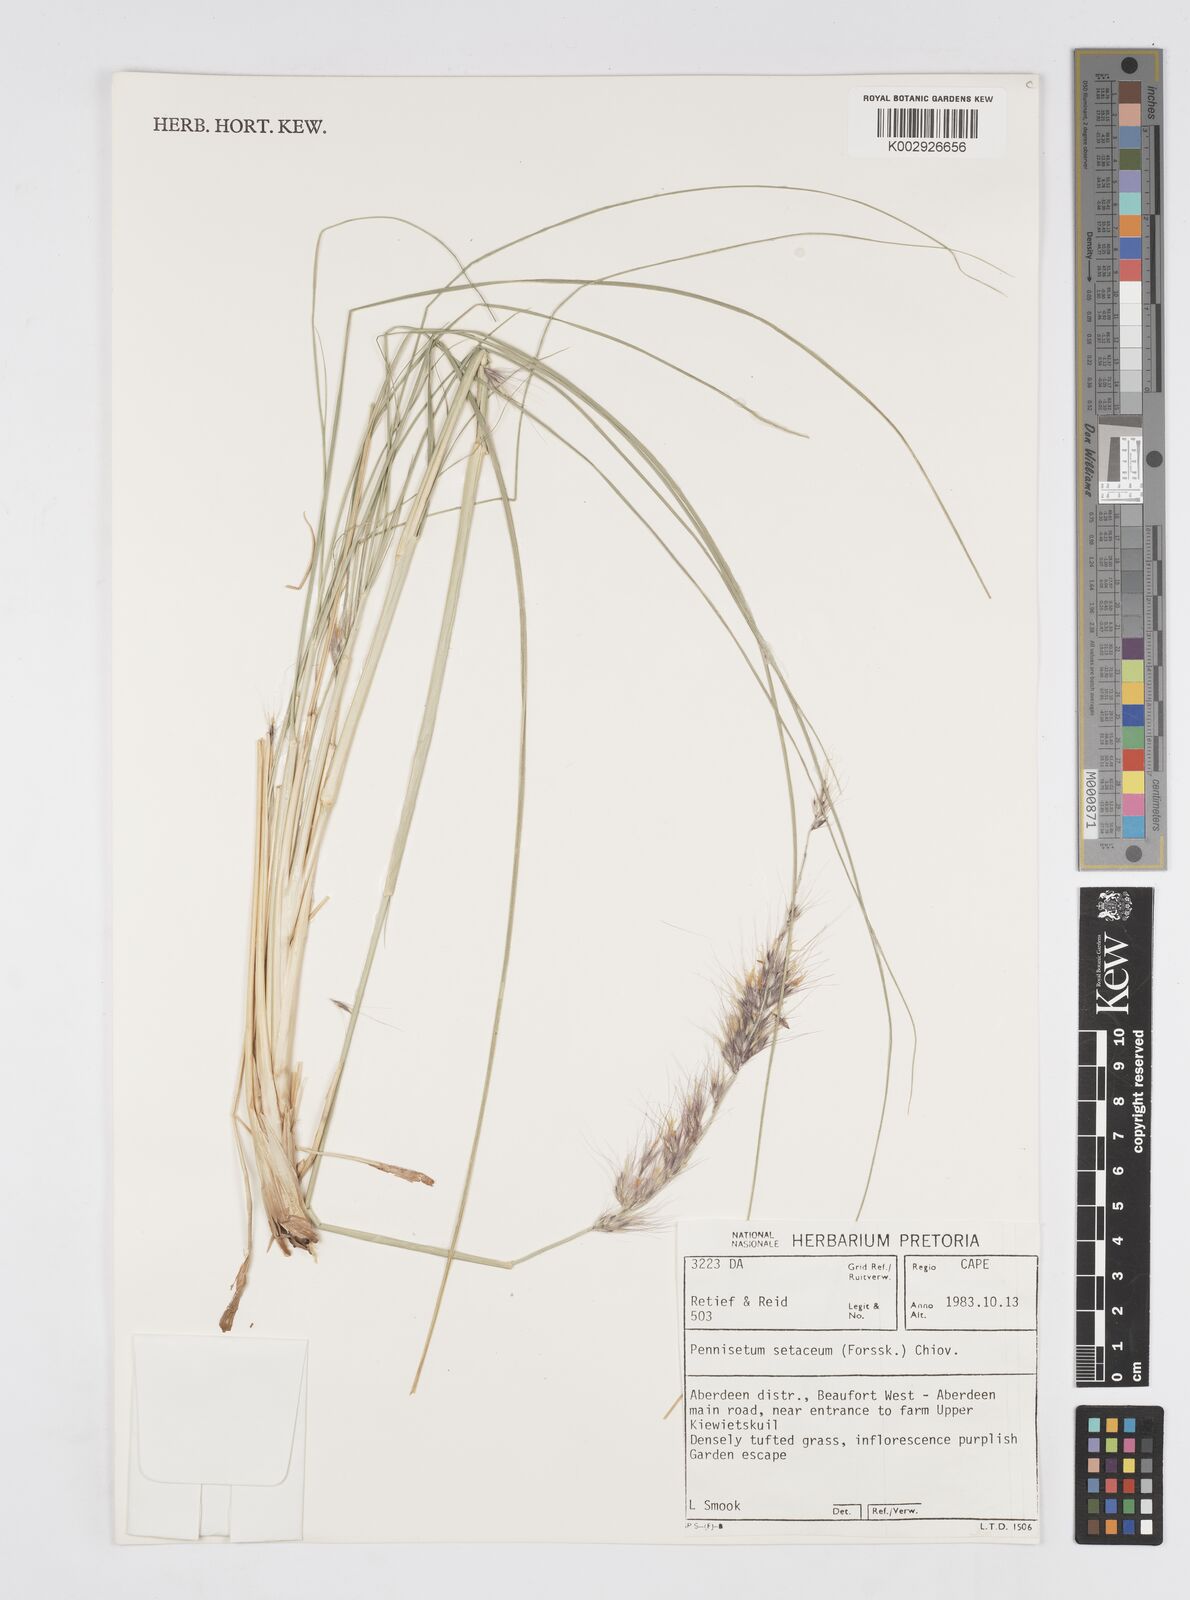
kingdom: Plantae
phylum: Tracheophyta
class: Liliopsida
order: Poales
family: Poaceae
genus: Cenchrus
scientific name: Cenchrus setaceus
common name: Crimson fountaingrass
